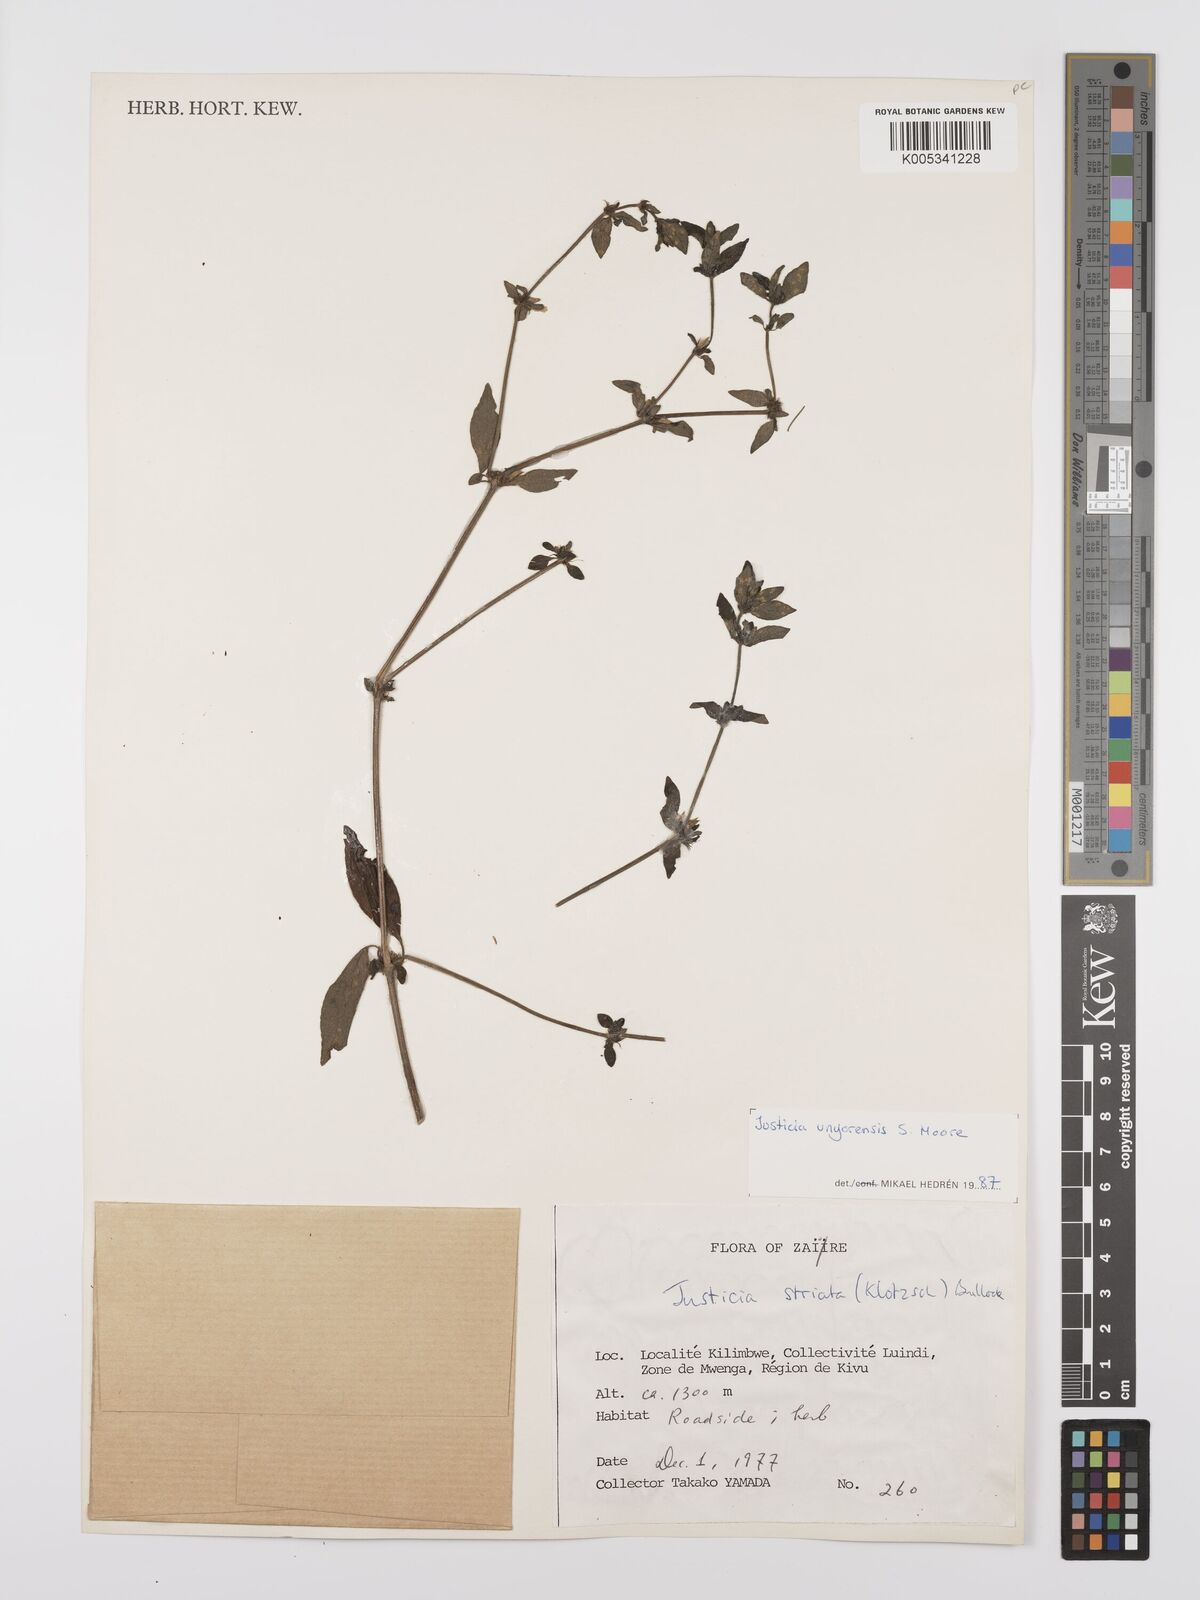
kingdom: Plantae
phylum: Tracheophyta
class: Magnoliopsida
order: Lamiales
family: Acanthaceae
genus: Justicia
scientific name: Justicia unyorensis
